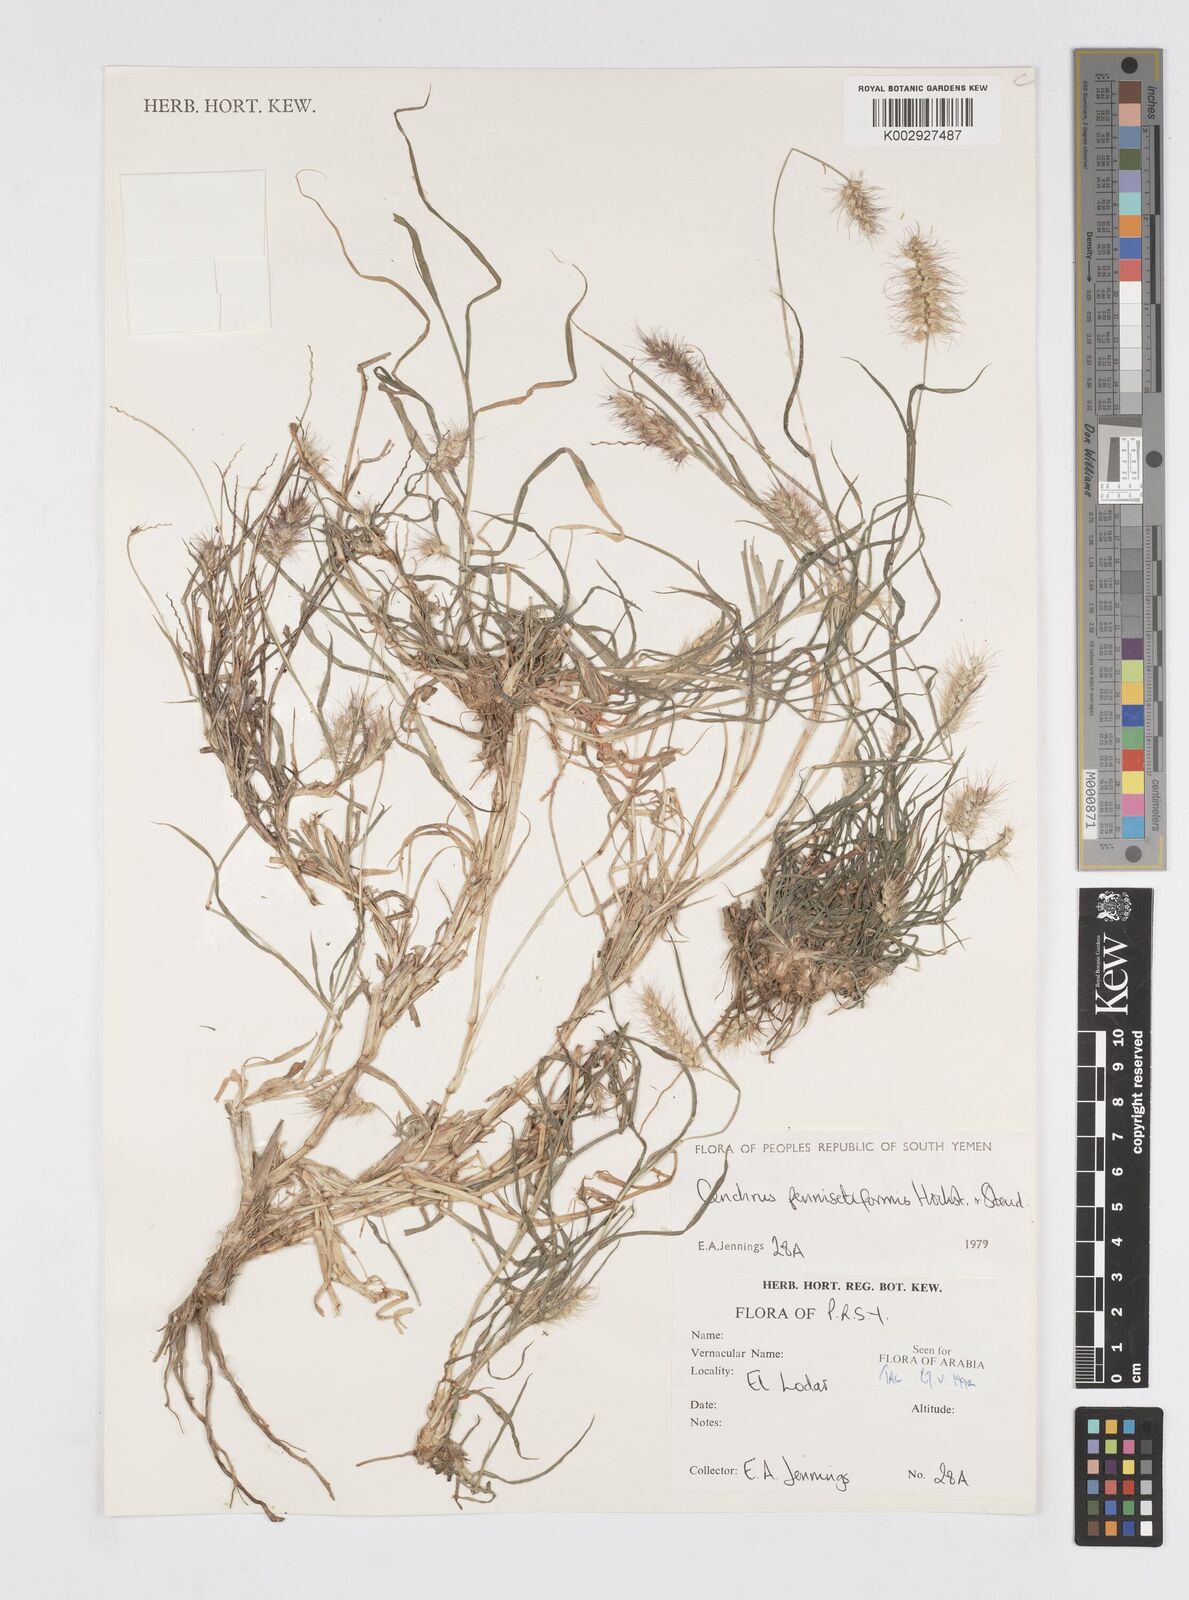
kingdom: Plantae
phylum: Tracheophyta
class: Liliopsida
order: Poales
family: Poaceae
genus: Cenchrus
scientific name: Cenchrus pennisetiformis
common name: Cloncurry
